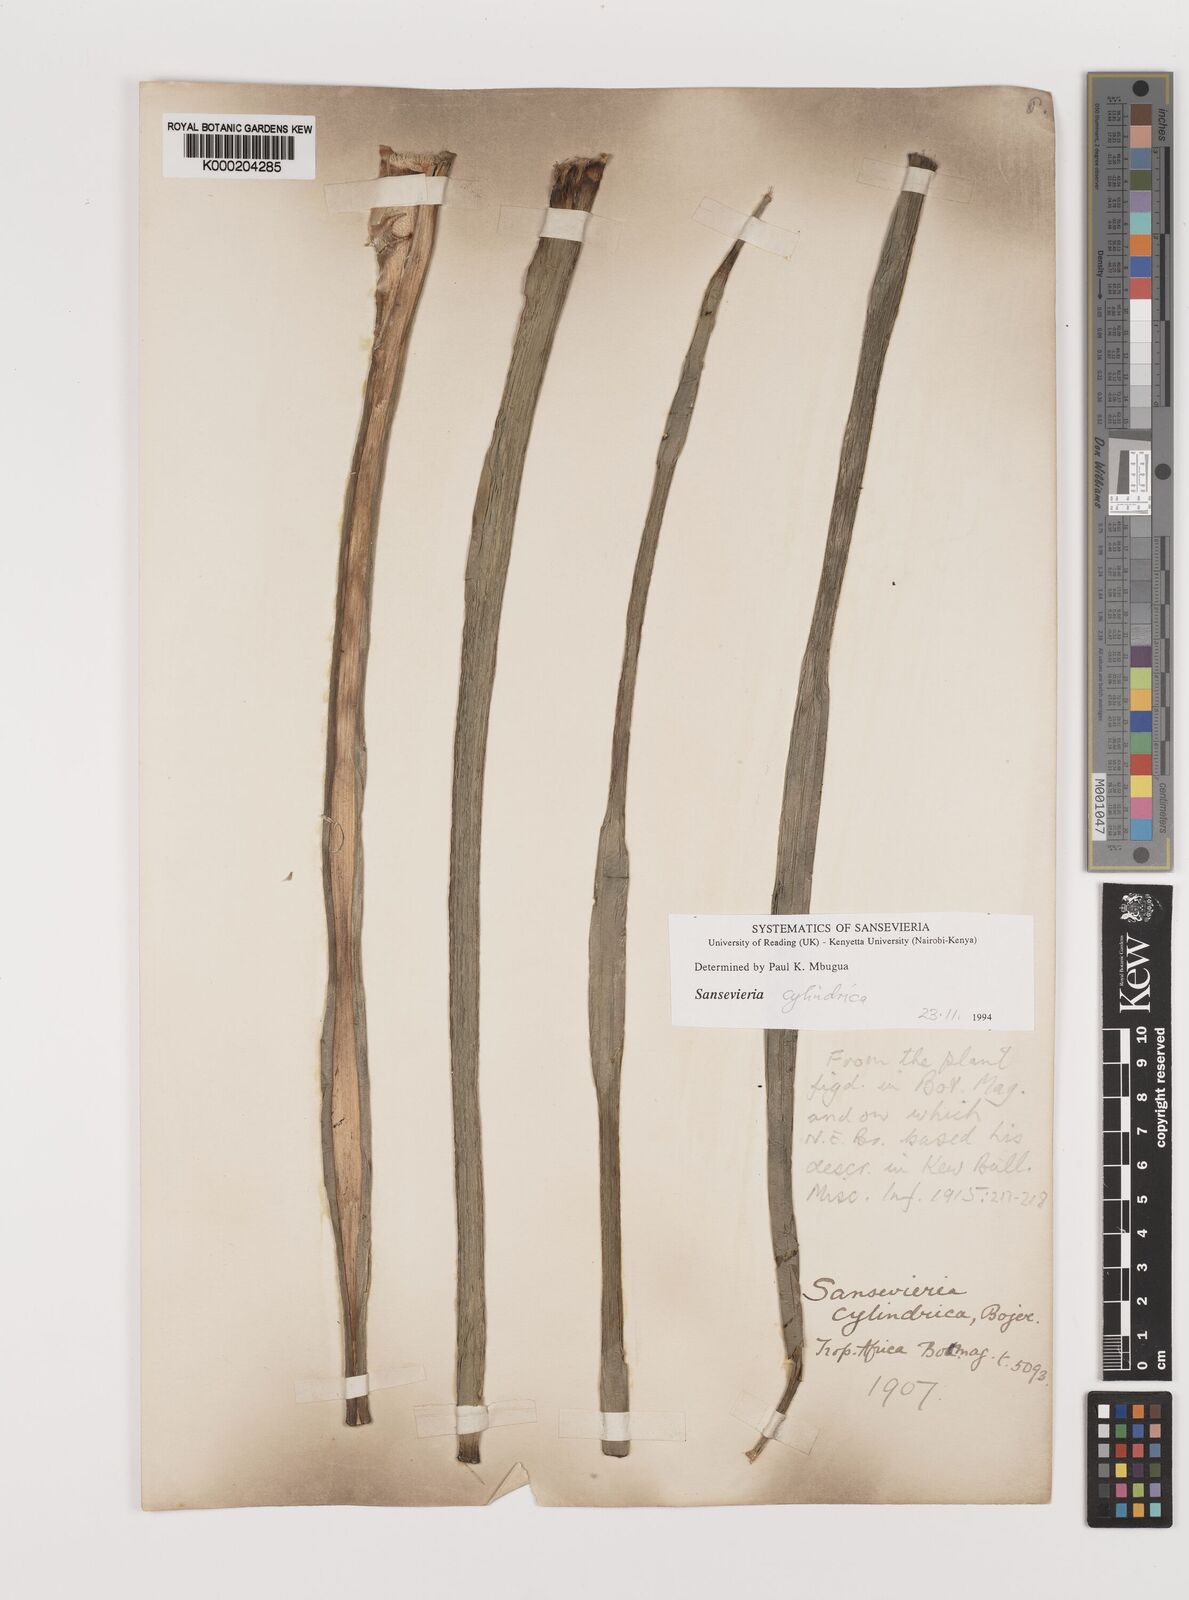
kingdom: Plantae
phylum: Tracheophyta
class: Liliopsida
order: Asparagales
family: Asparagaceae
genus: Dracaena
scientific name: Dracaena angolensis
